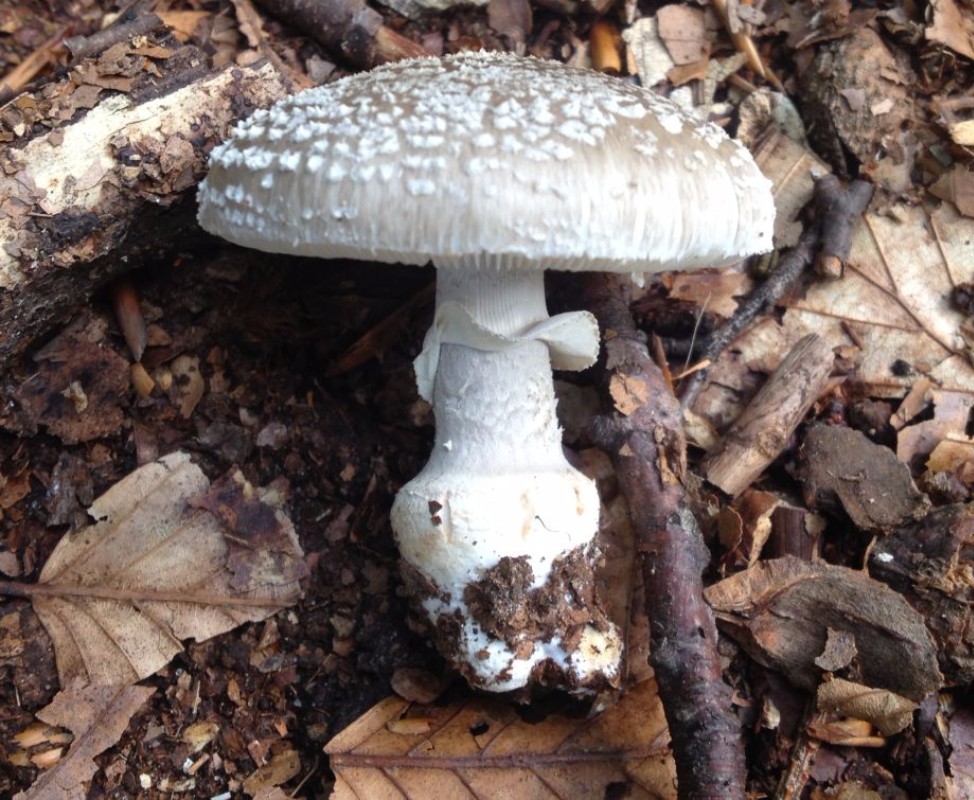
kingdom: Fungi
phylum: Basidiomycota
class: Agaricomycetes
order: Agaricales
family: Amanitaceae
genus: Amanita
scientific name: Amanita
